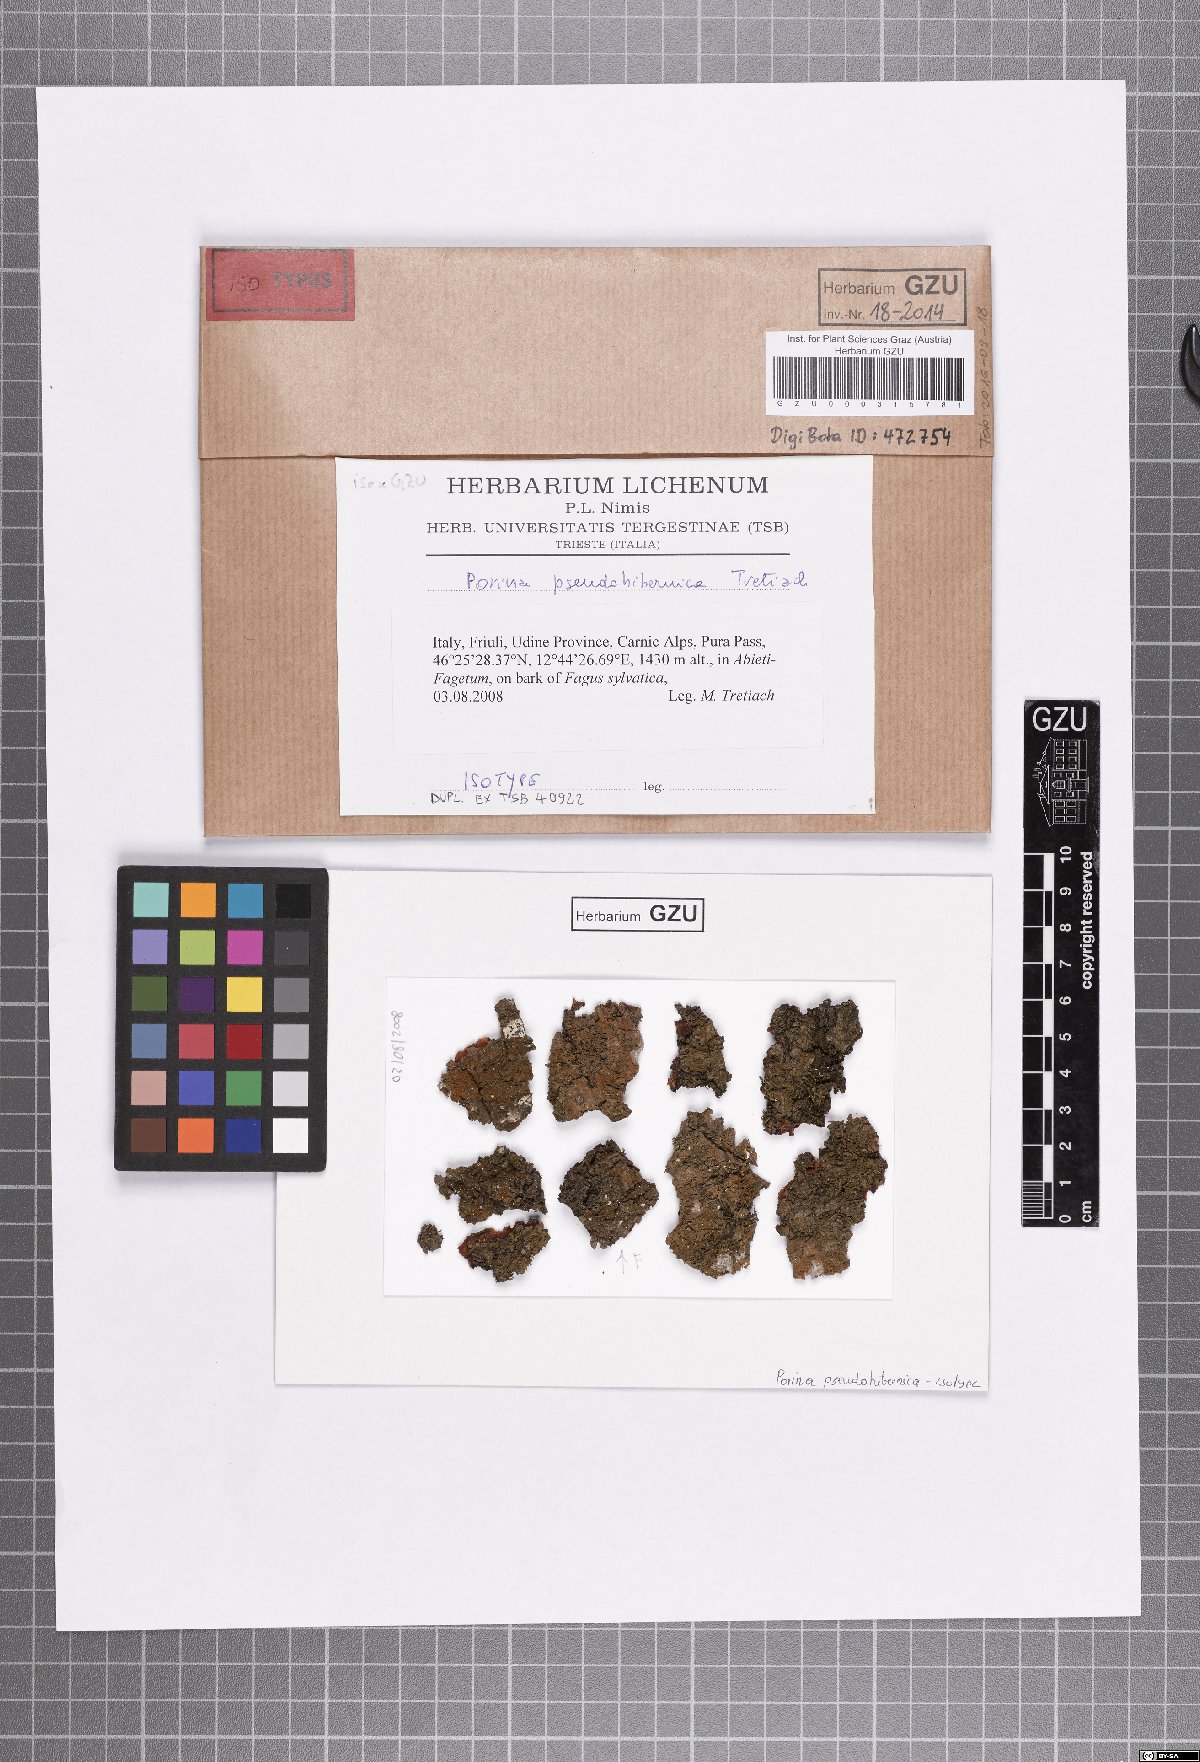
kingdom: Fungi
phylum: Ascomycota
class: Lecanoromycetes
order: Ostropales
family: Porinaceae
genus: Zamenhofia
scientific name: Zamenhofia pseudohibernica
